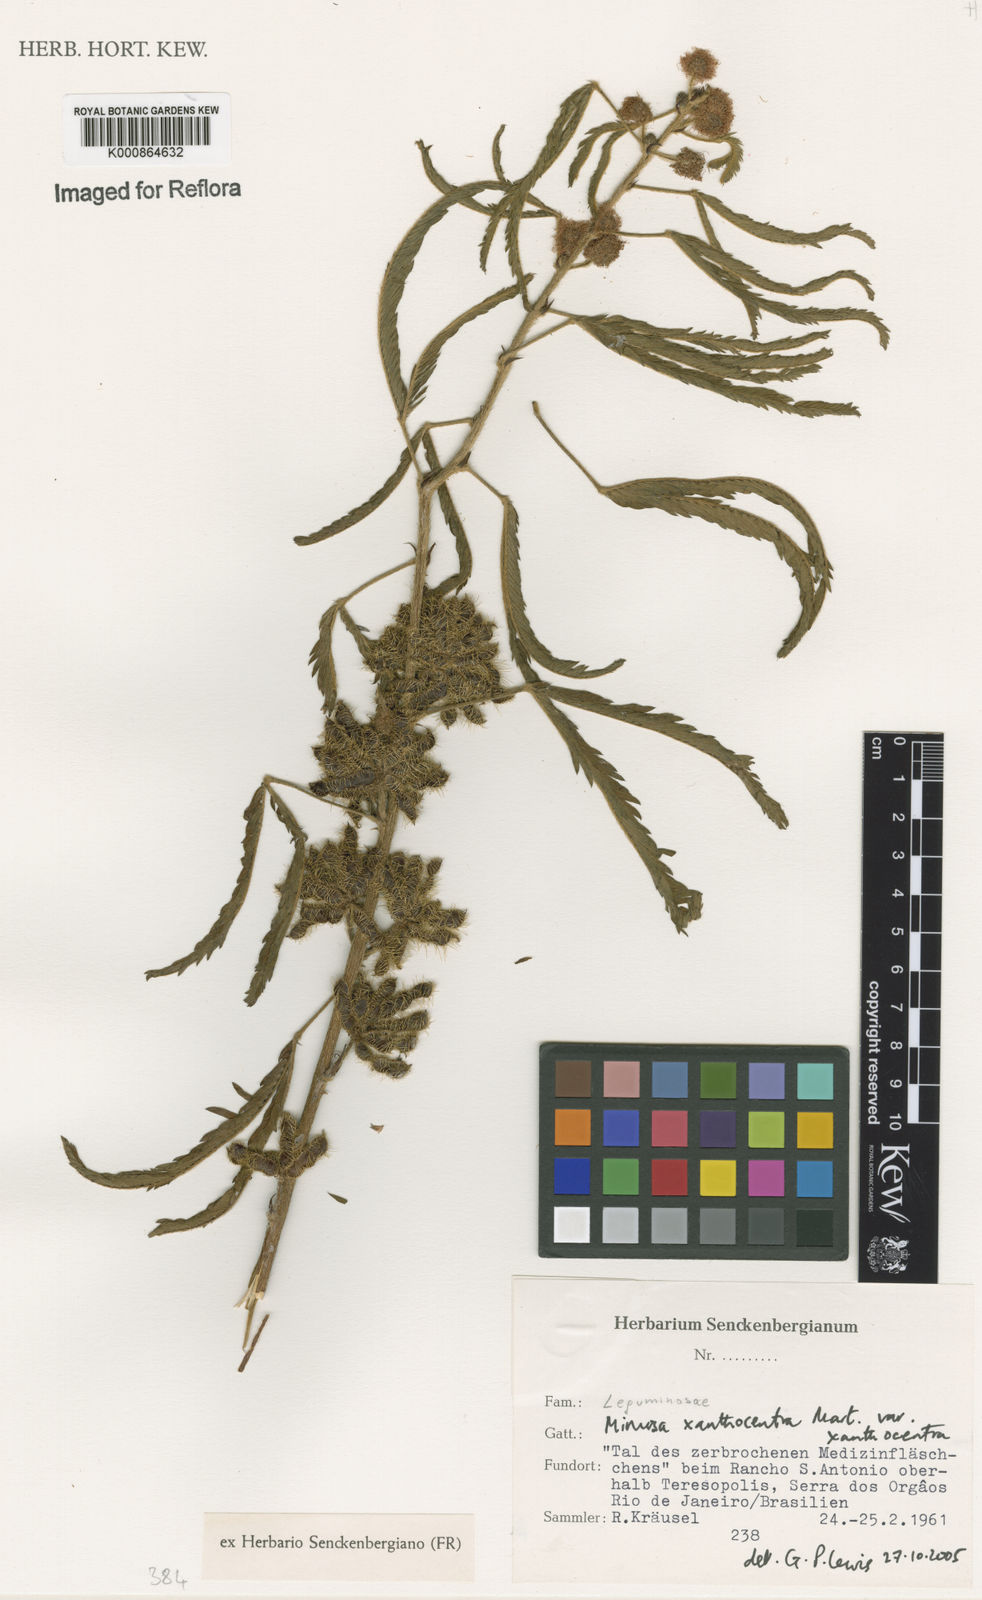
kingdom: Plantae
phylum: Tracheophyta
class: Magnoliopsida
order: Fabales
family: Fabaceae
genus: Mimosa
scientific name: Mimosa xanthocentra
